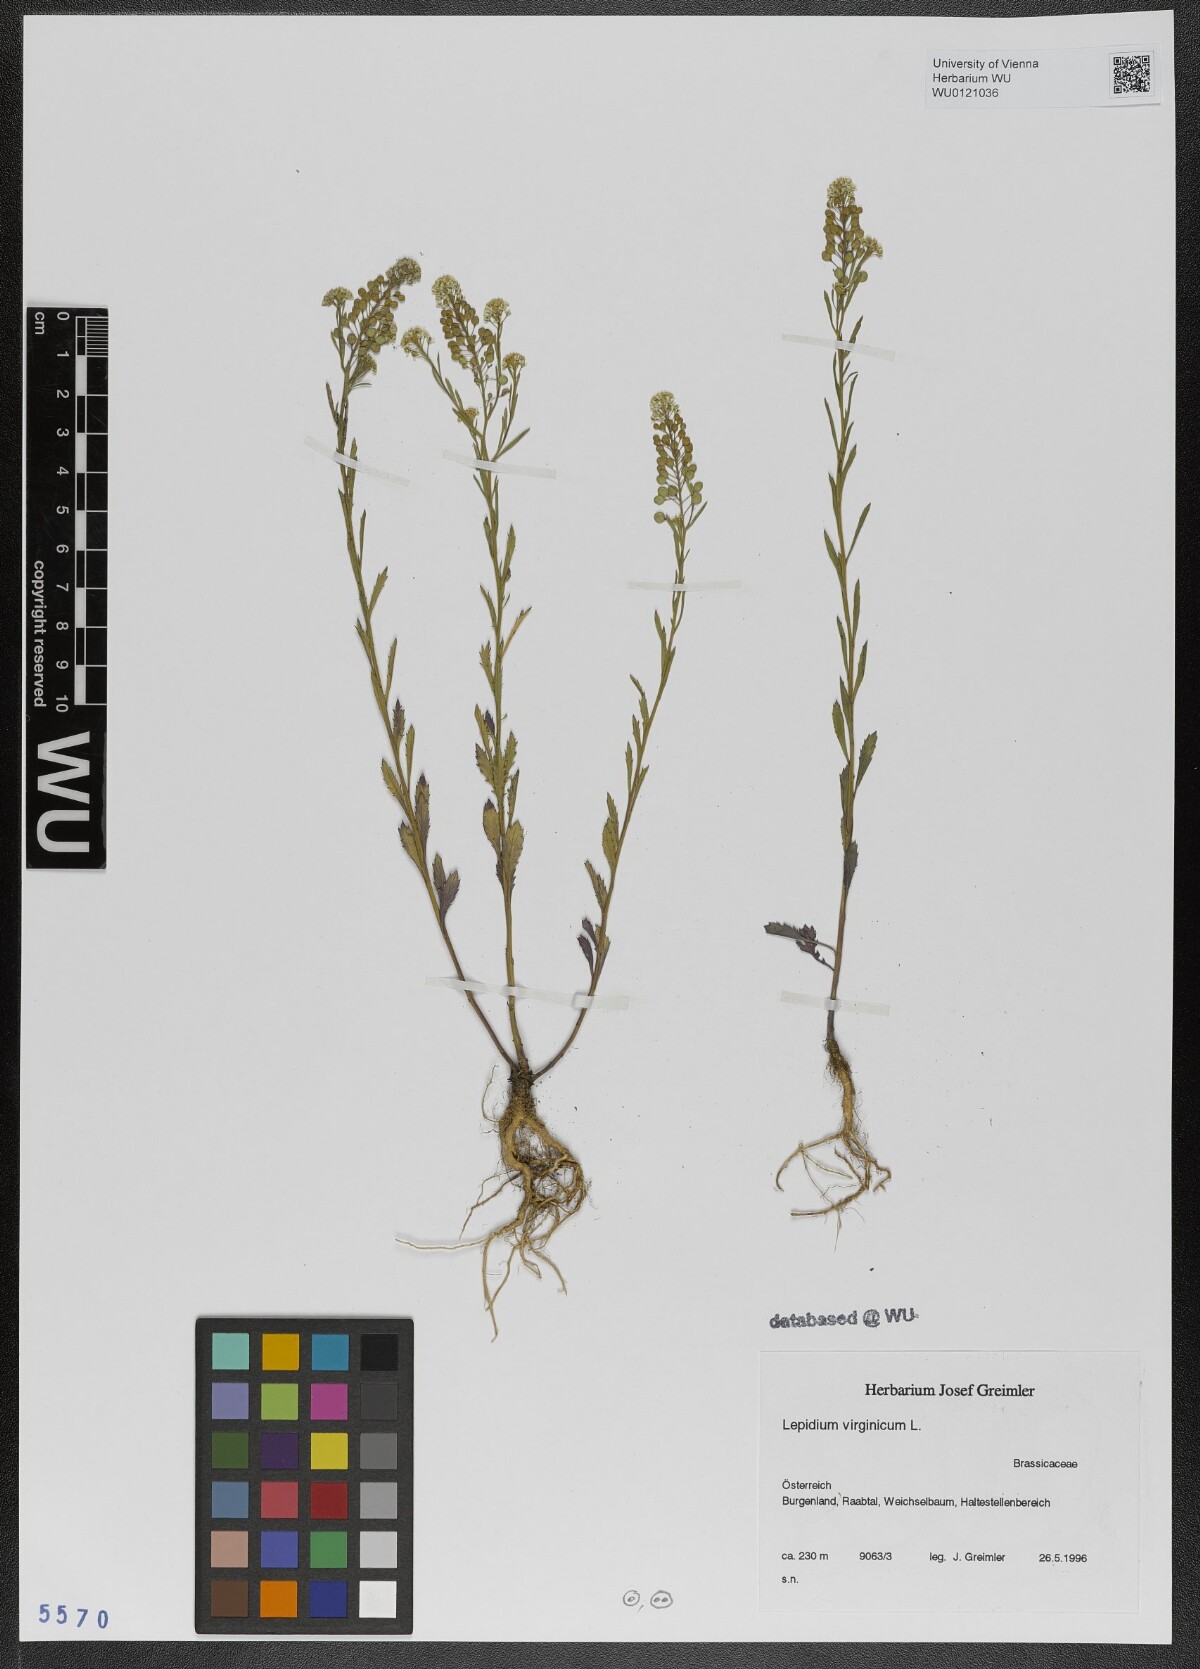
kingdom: Plantae
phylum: Tracheophyta
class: Magnoliopsida
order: Brassicales
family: Brassicaceae
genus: Lepidium
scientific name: Lepidium virginicum
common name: Least pepperwort
